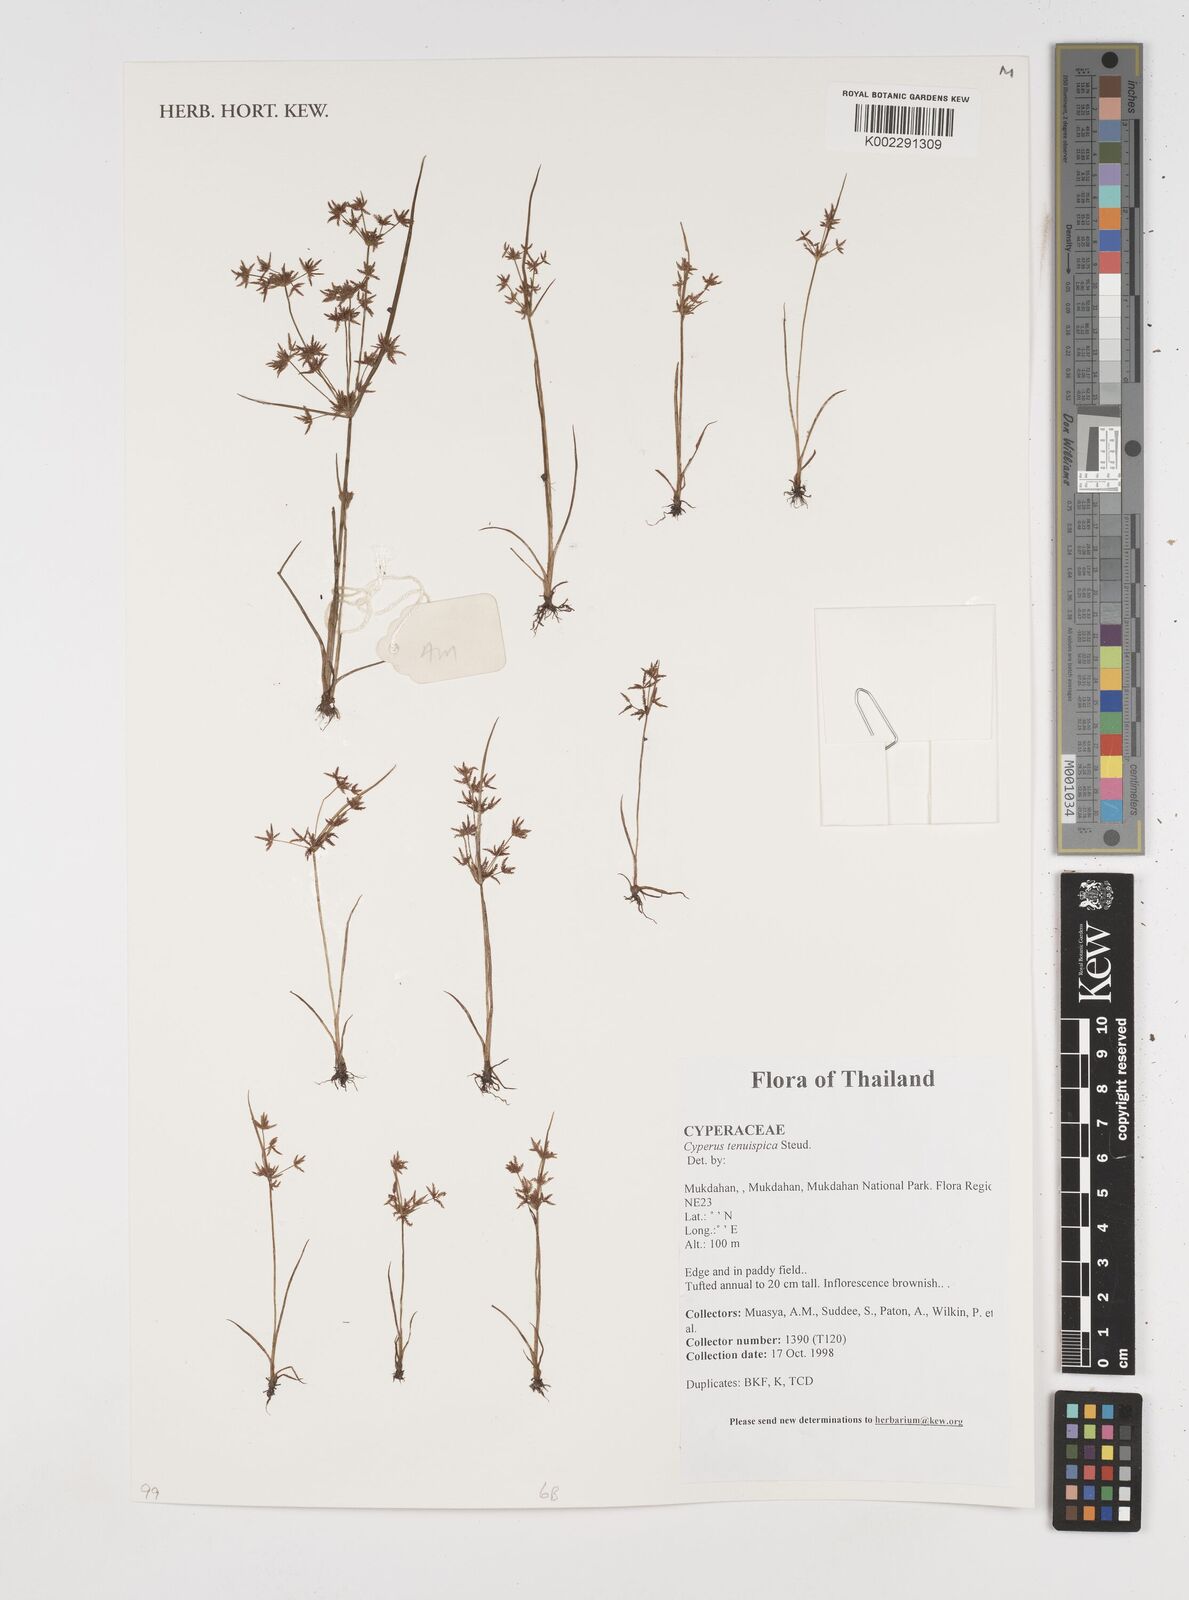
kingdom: Plantae
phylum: Tracheophyta
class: Liliopsida
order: Poales
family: Cyperaceae
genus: Cyperus
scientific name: Cyperus tenuispica
